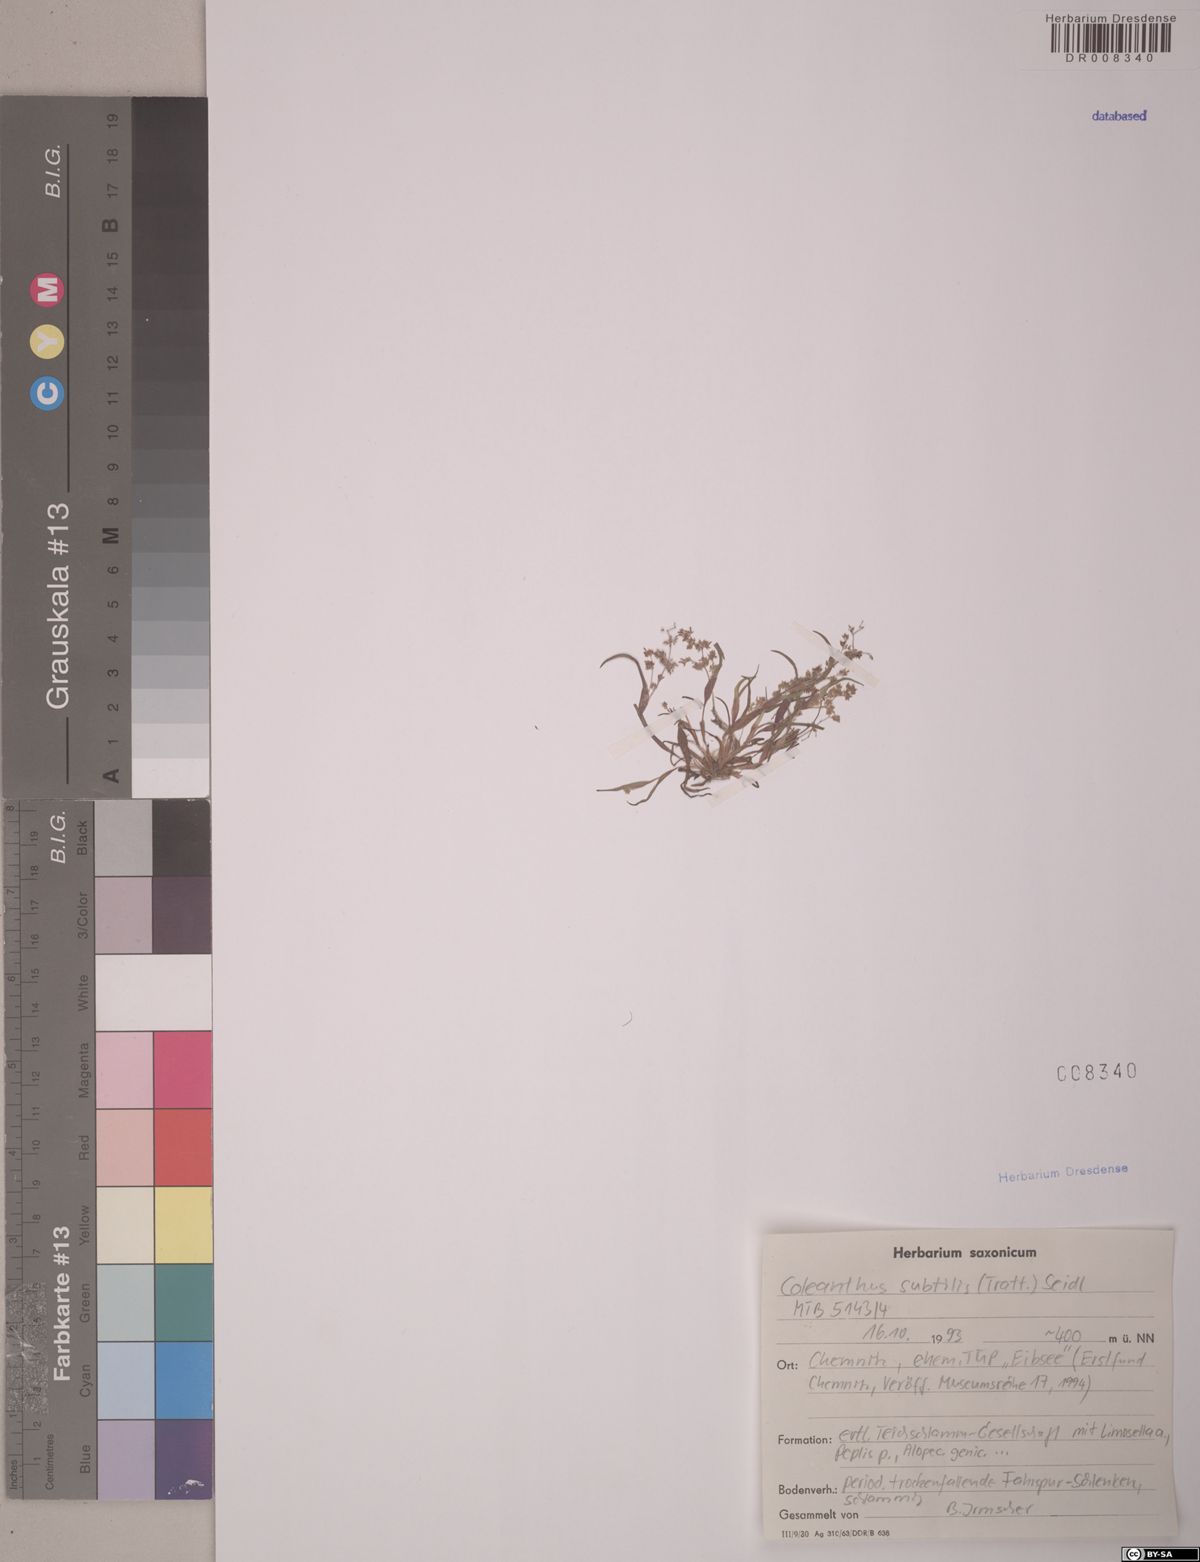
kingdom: Plantae
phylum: Tracheophyta
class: Liliopsida
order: Poales
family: Poaceae
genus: Coleanthus
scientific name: Coleanthus subtilis
